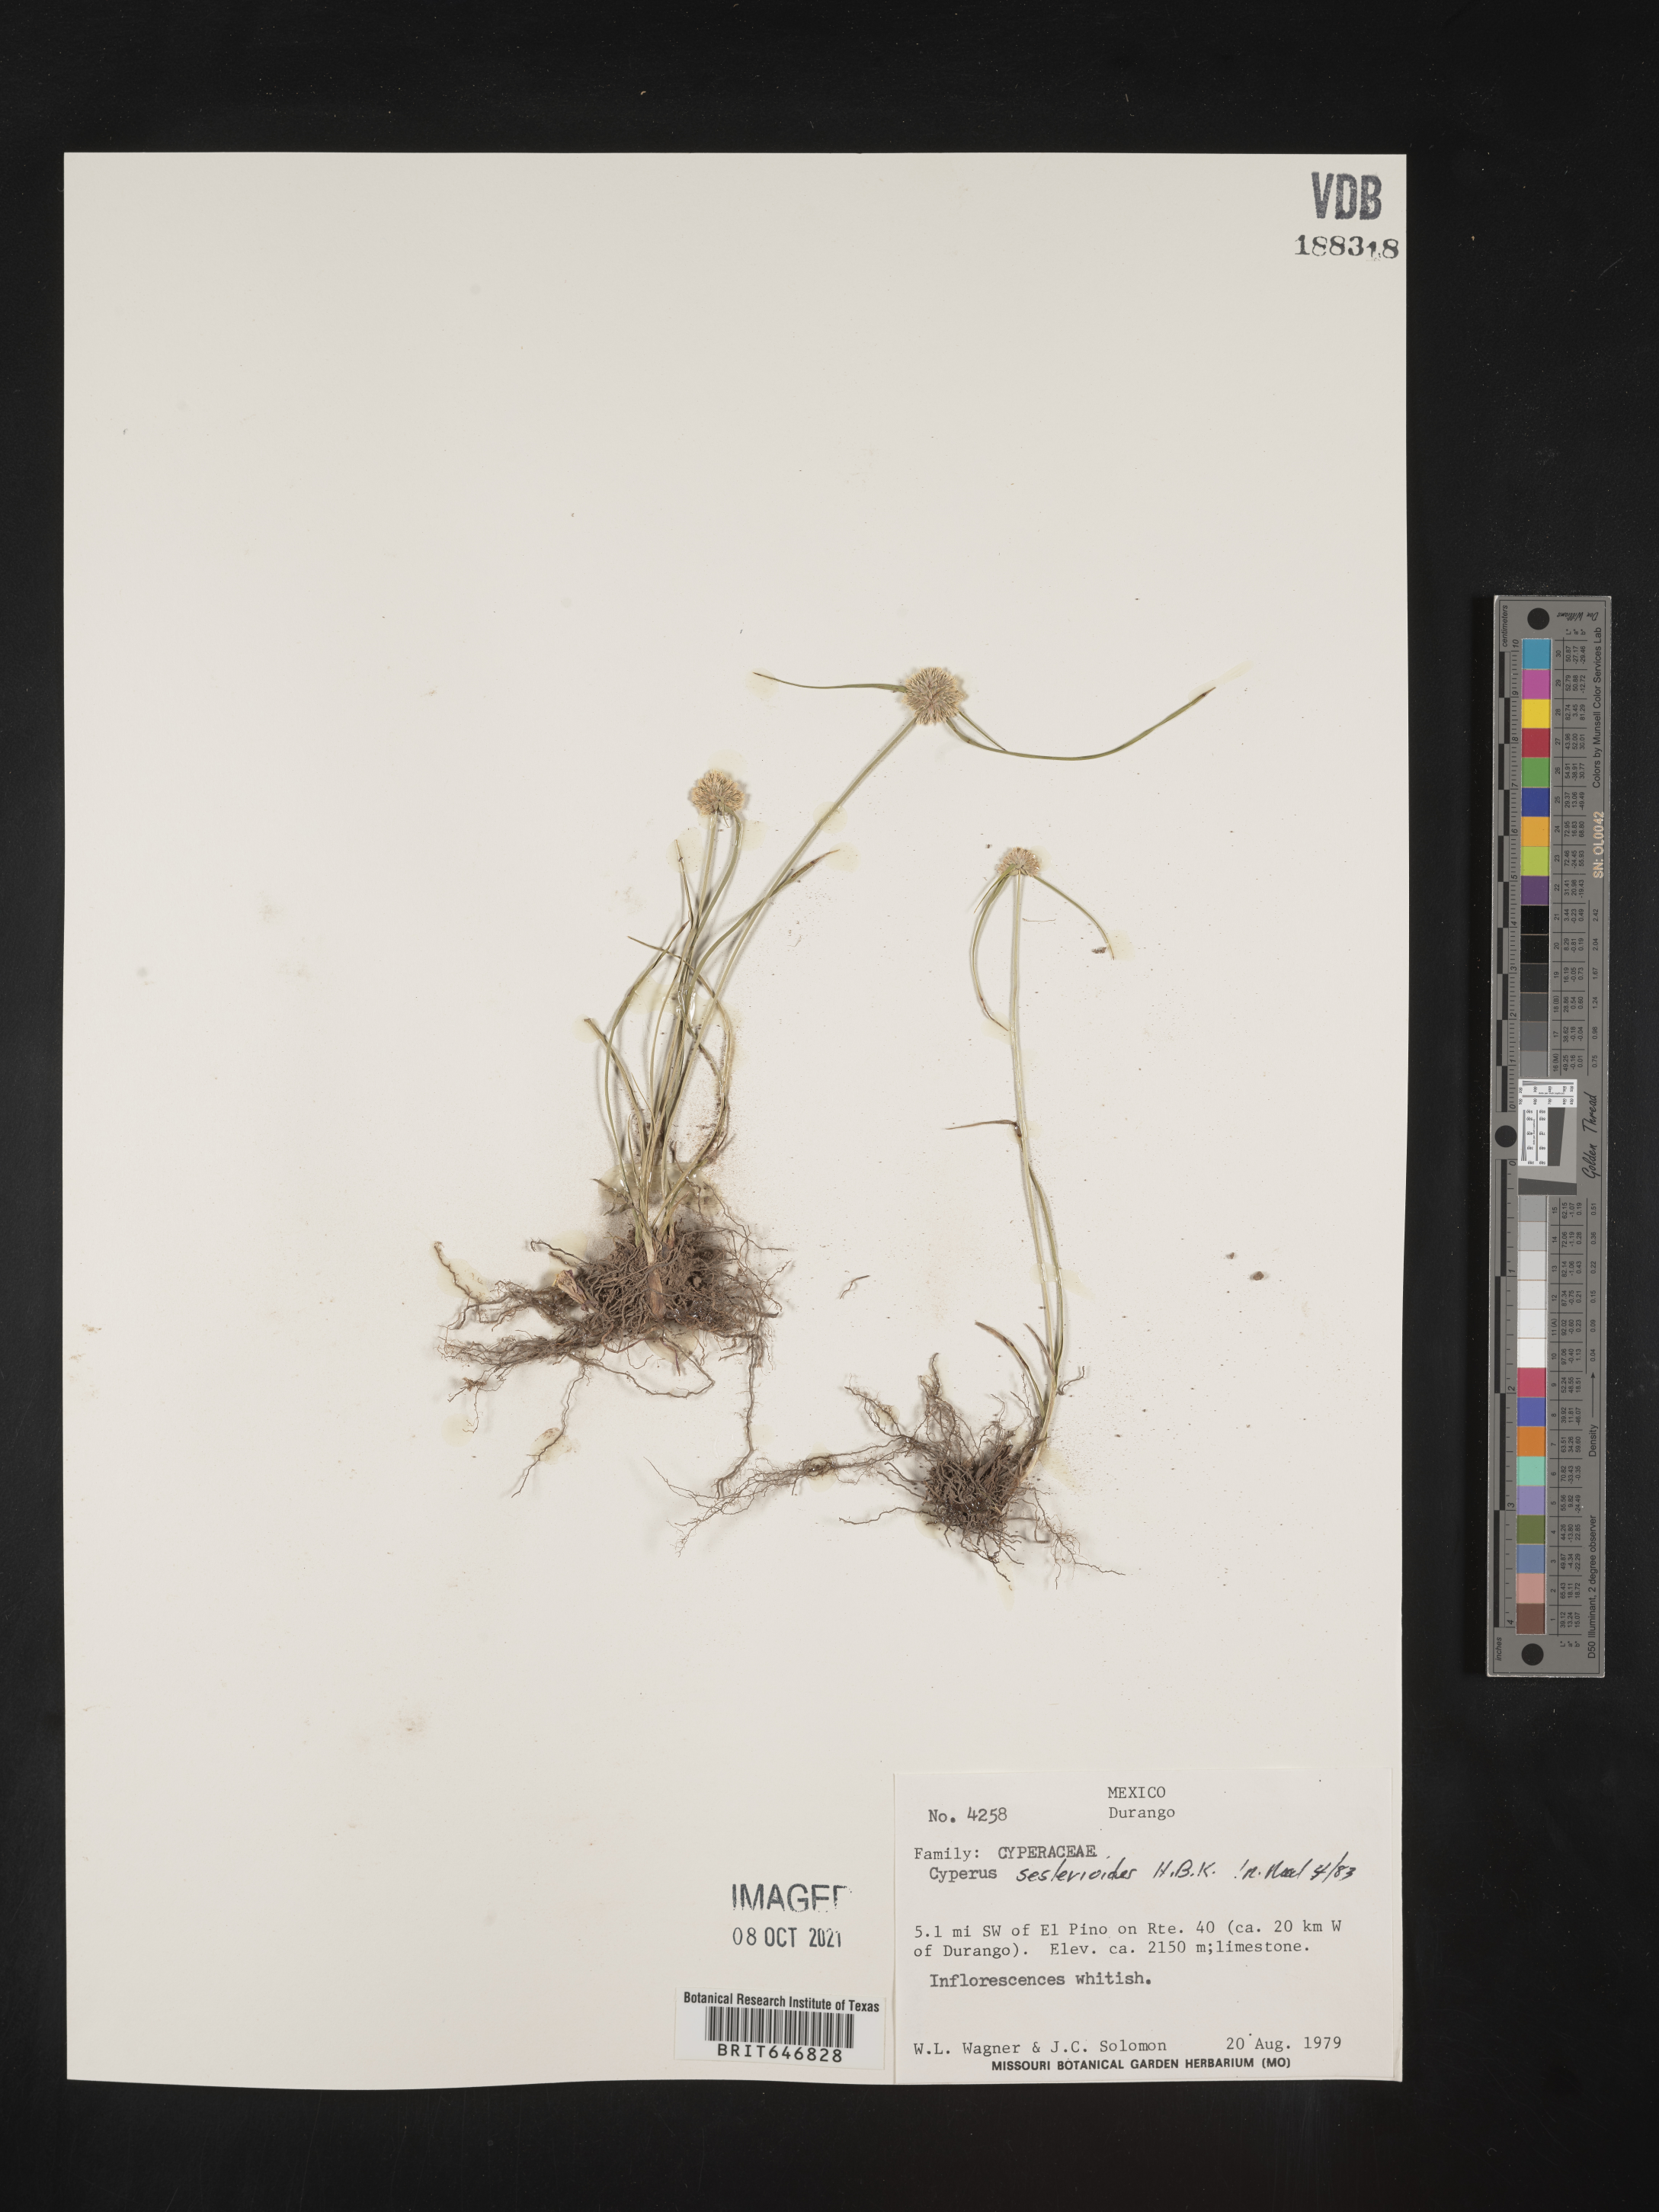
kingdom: Plantae
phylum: Tracheophyta
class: Liliopsida
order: Poales
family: Cyperaceae
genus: Cyperus
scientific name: Cyperus
